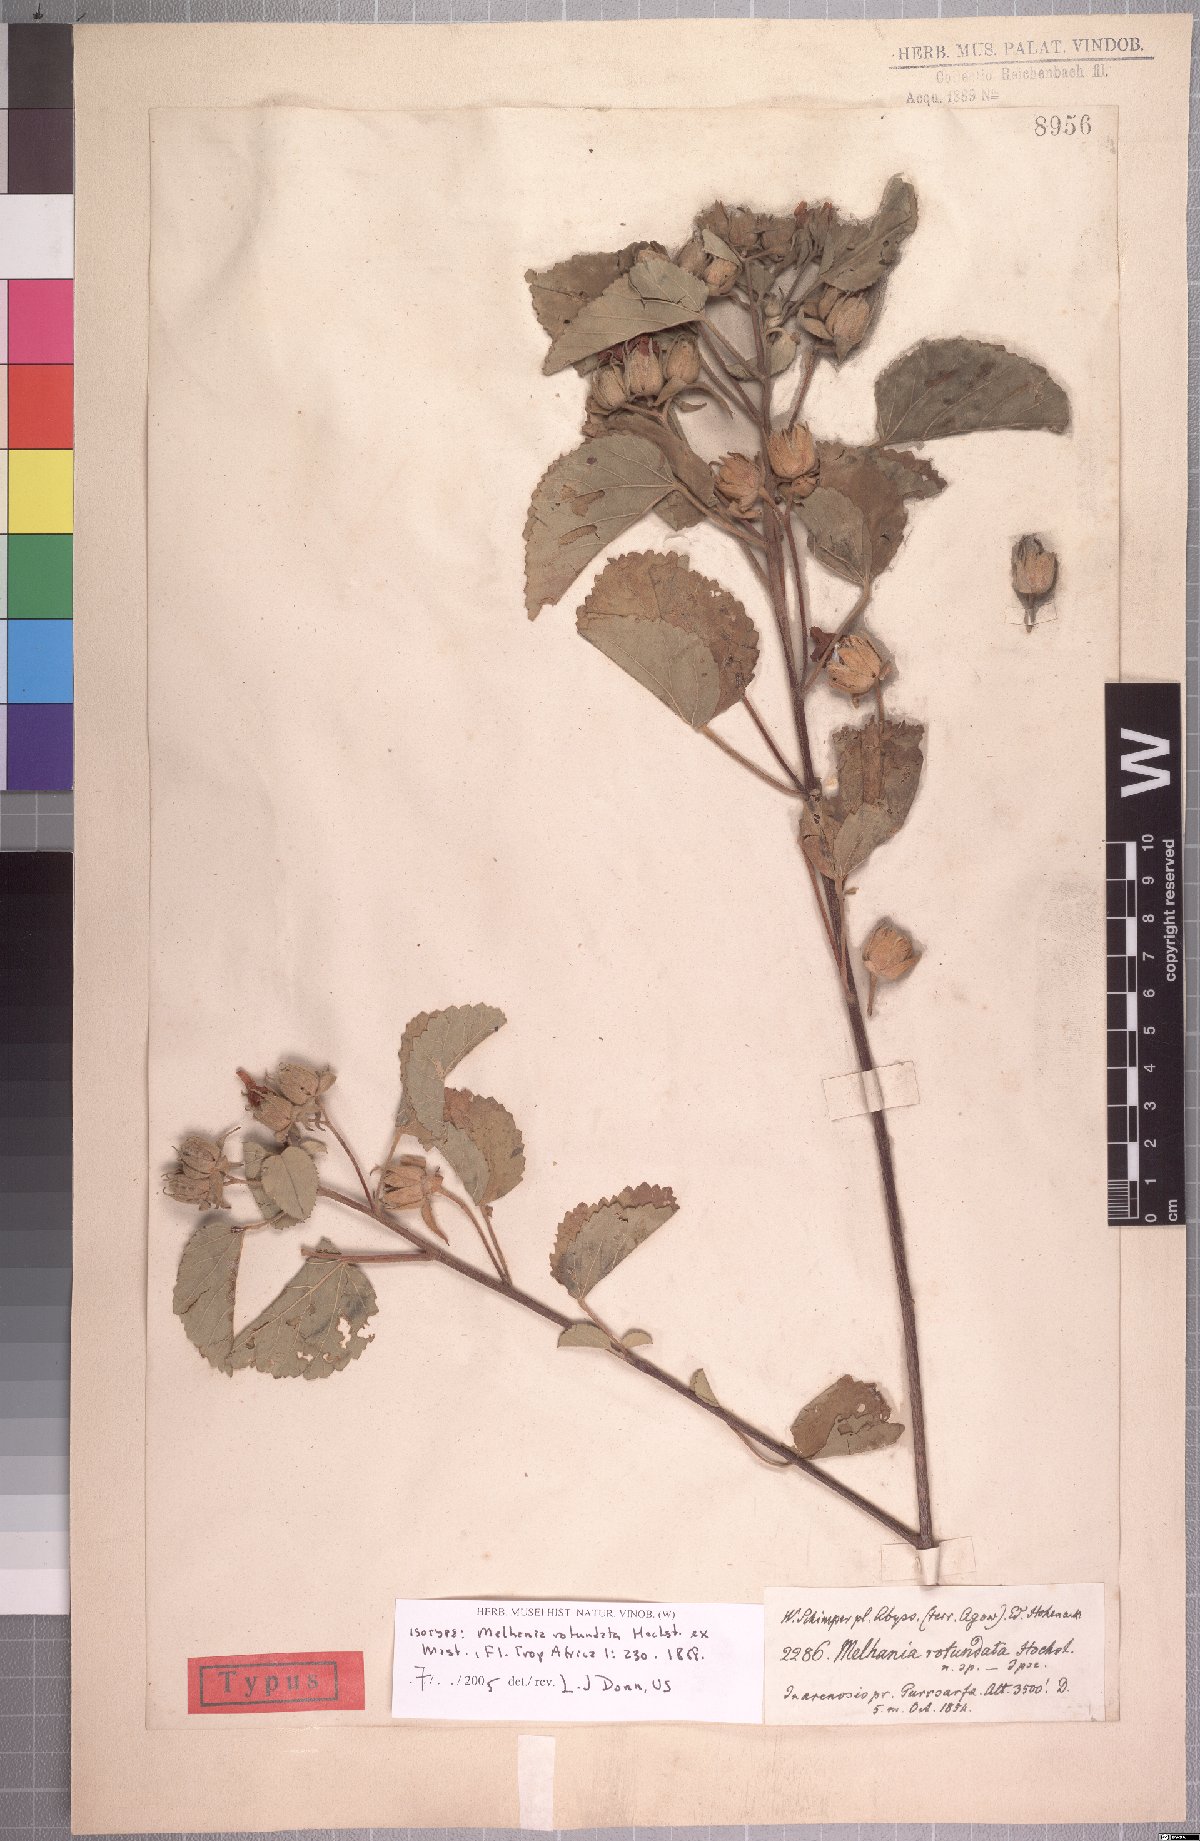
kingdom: Plantae
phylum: Tracheophyta
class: Magnoliopsida
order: Malvales
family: Malvaceae
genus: Melhania
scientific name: Melhania rotundata
